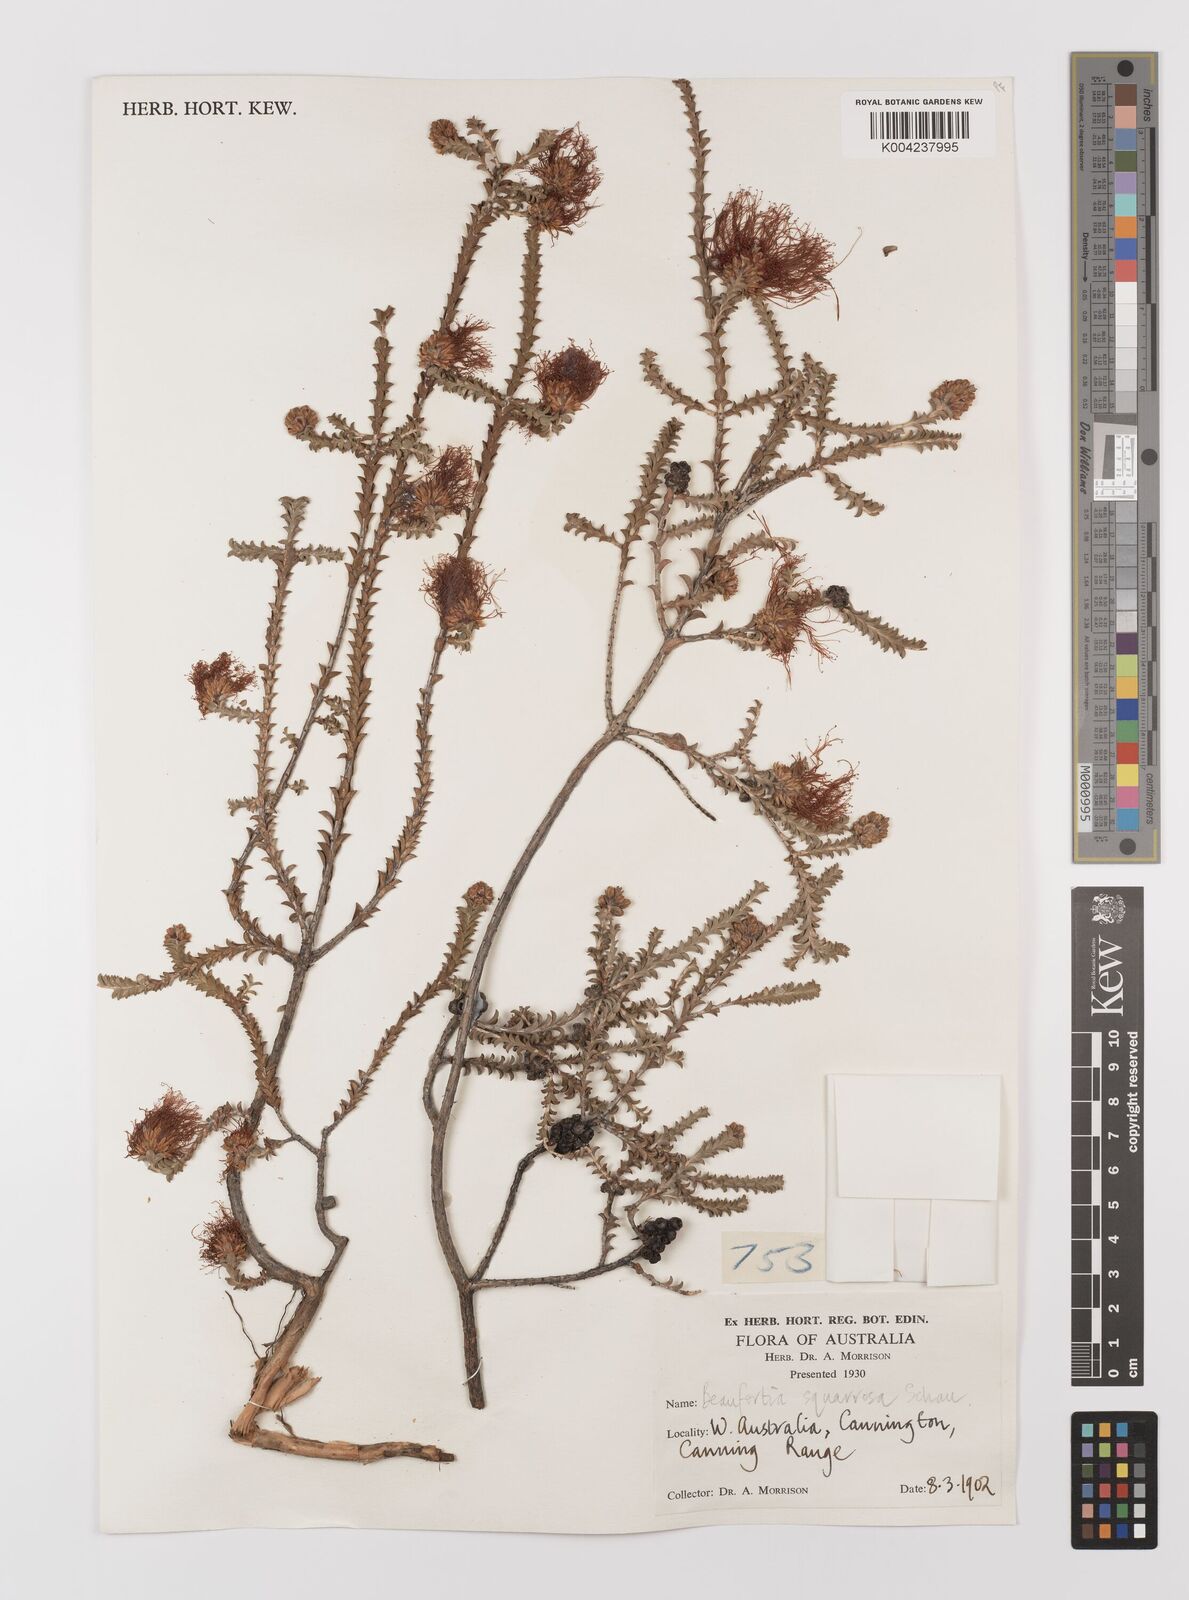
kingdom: Plantae
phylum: Tracheophyta
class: Magnoliopsida
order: Myrtales
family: Myrtaceae
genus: Melaleuca
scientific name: Melaleuca pulcherrima
